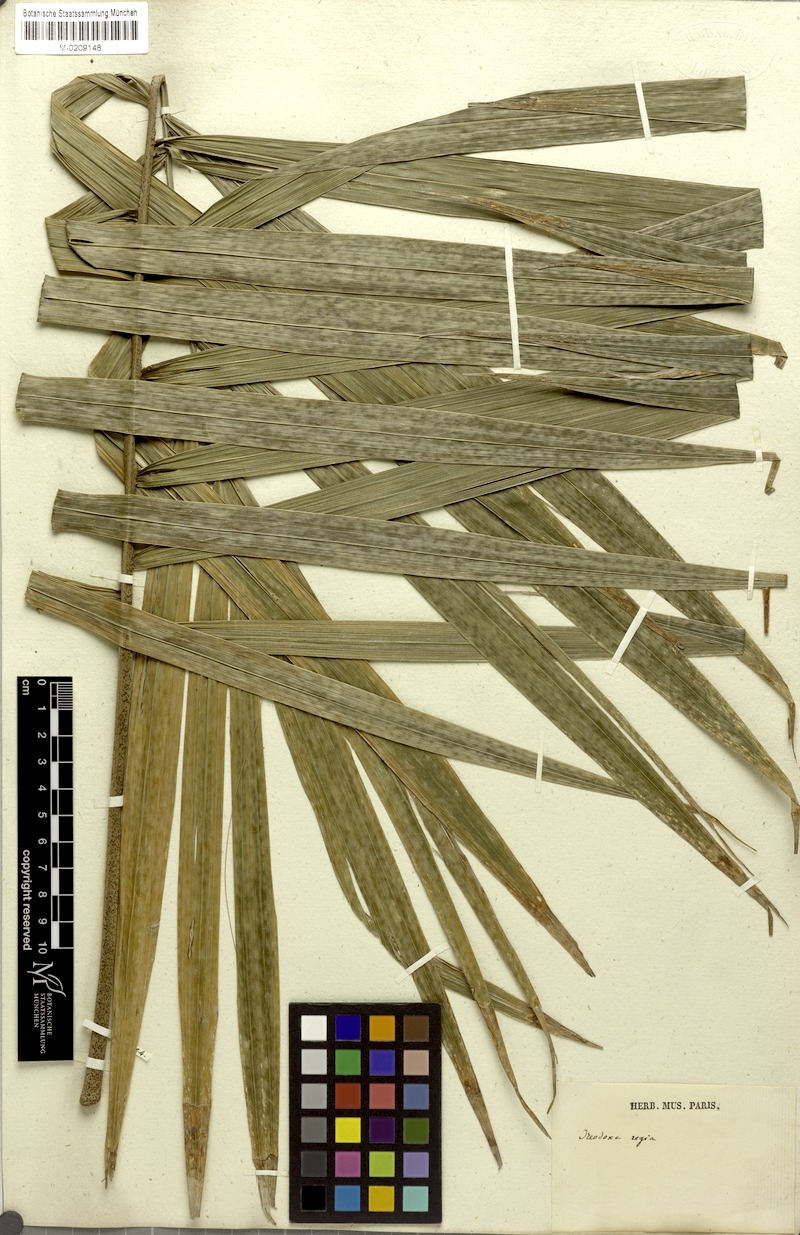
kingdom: Plantae
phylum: Tracheophyta
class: Liliopsida
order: Arecales
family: Arecaceae
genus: Roystonea
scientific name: Roystonea regia
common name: Florida royal palm
